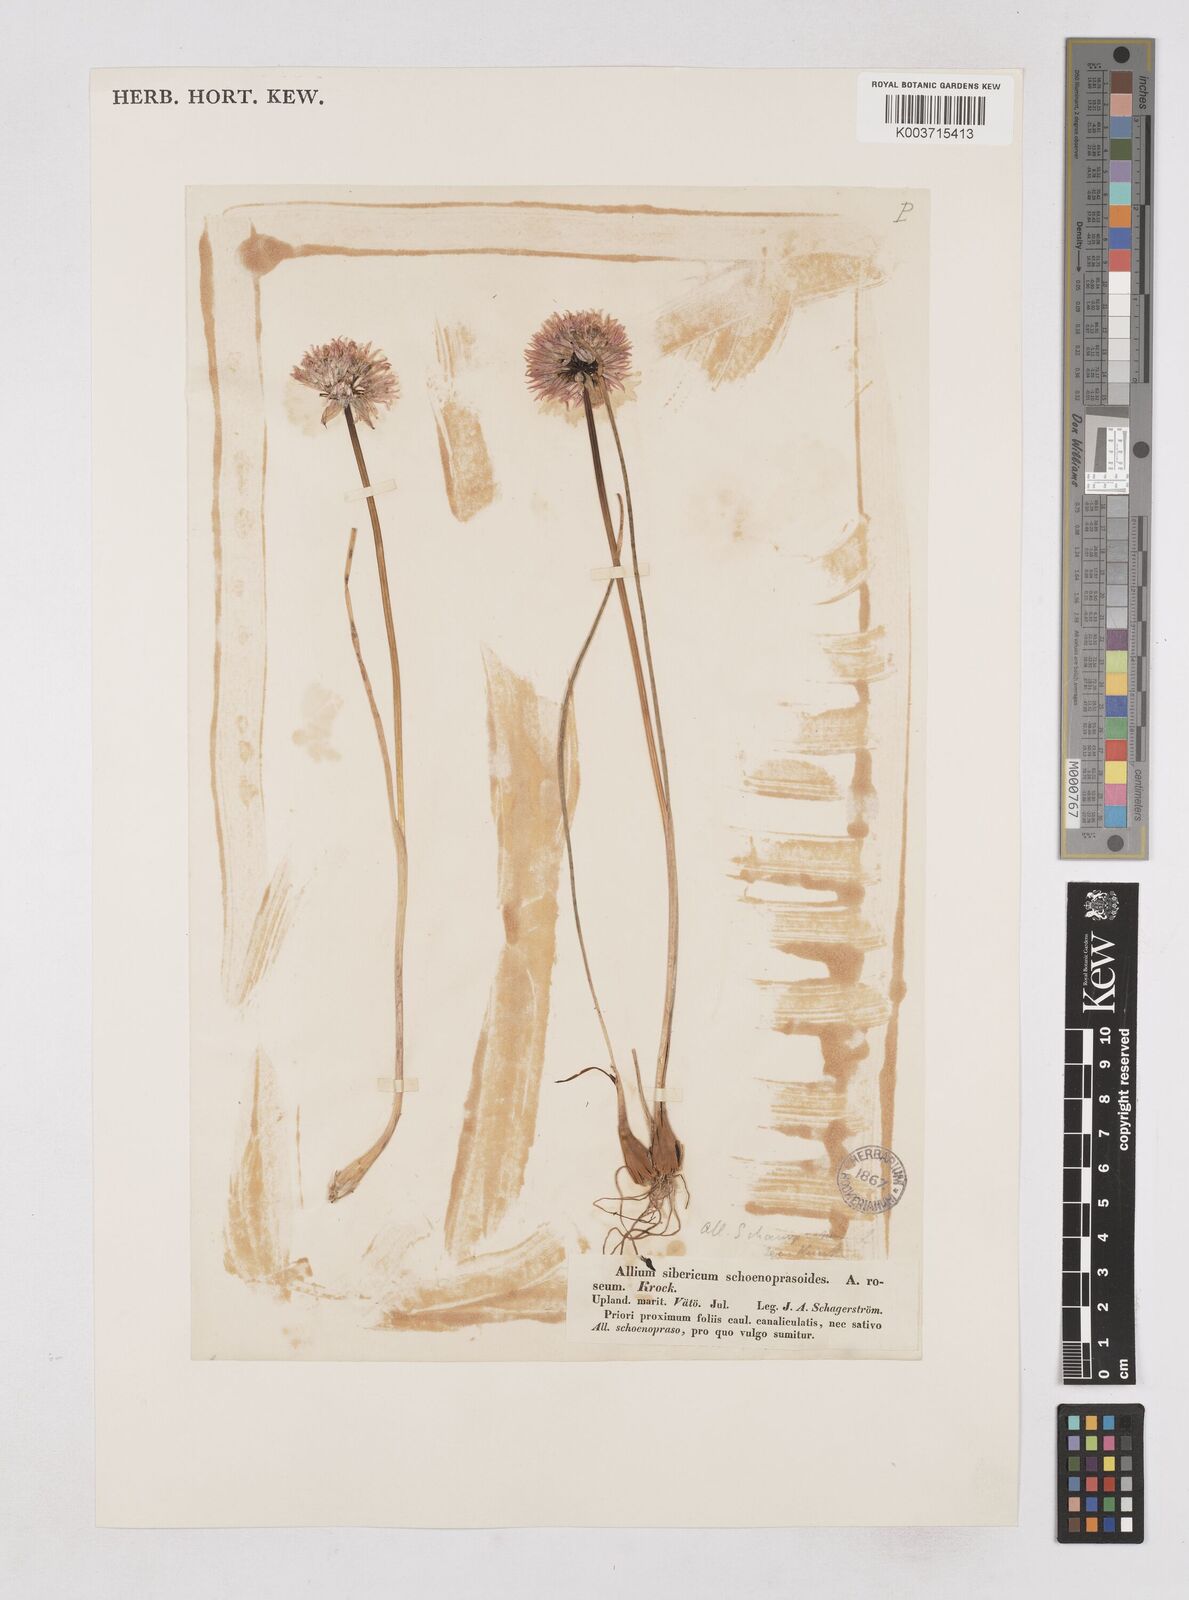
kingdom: Plantae
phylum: Tracheophyta
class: Liliopsida
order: Asparagales
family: Amaryllidaceae
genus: Allium
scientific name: Allium schoenoprasum
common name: Chives
